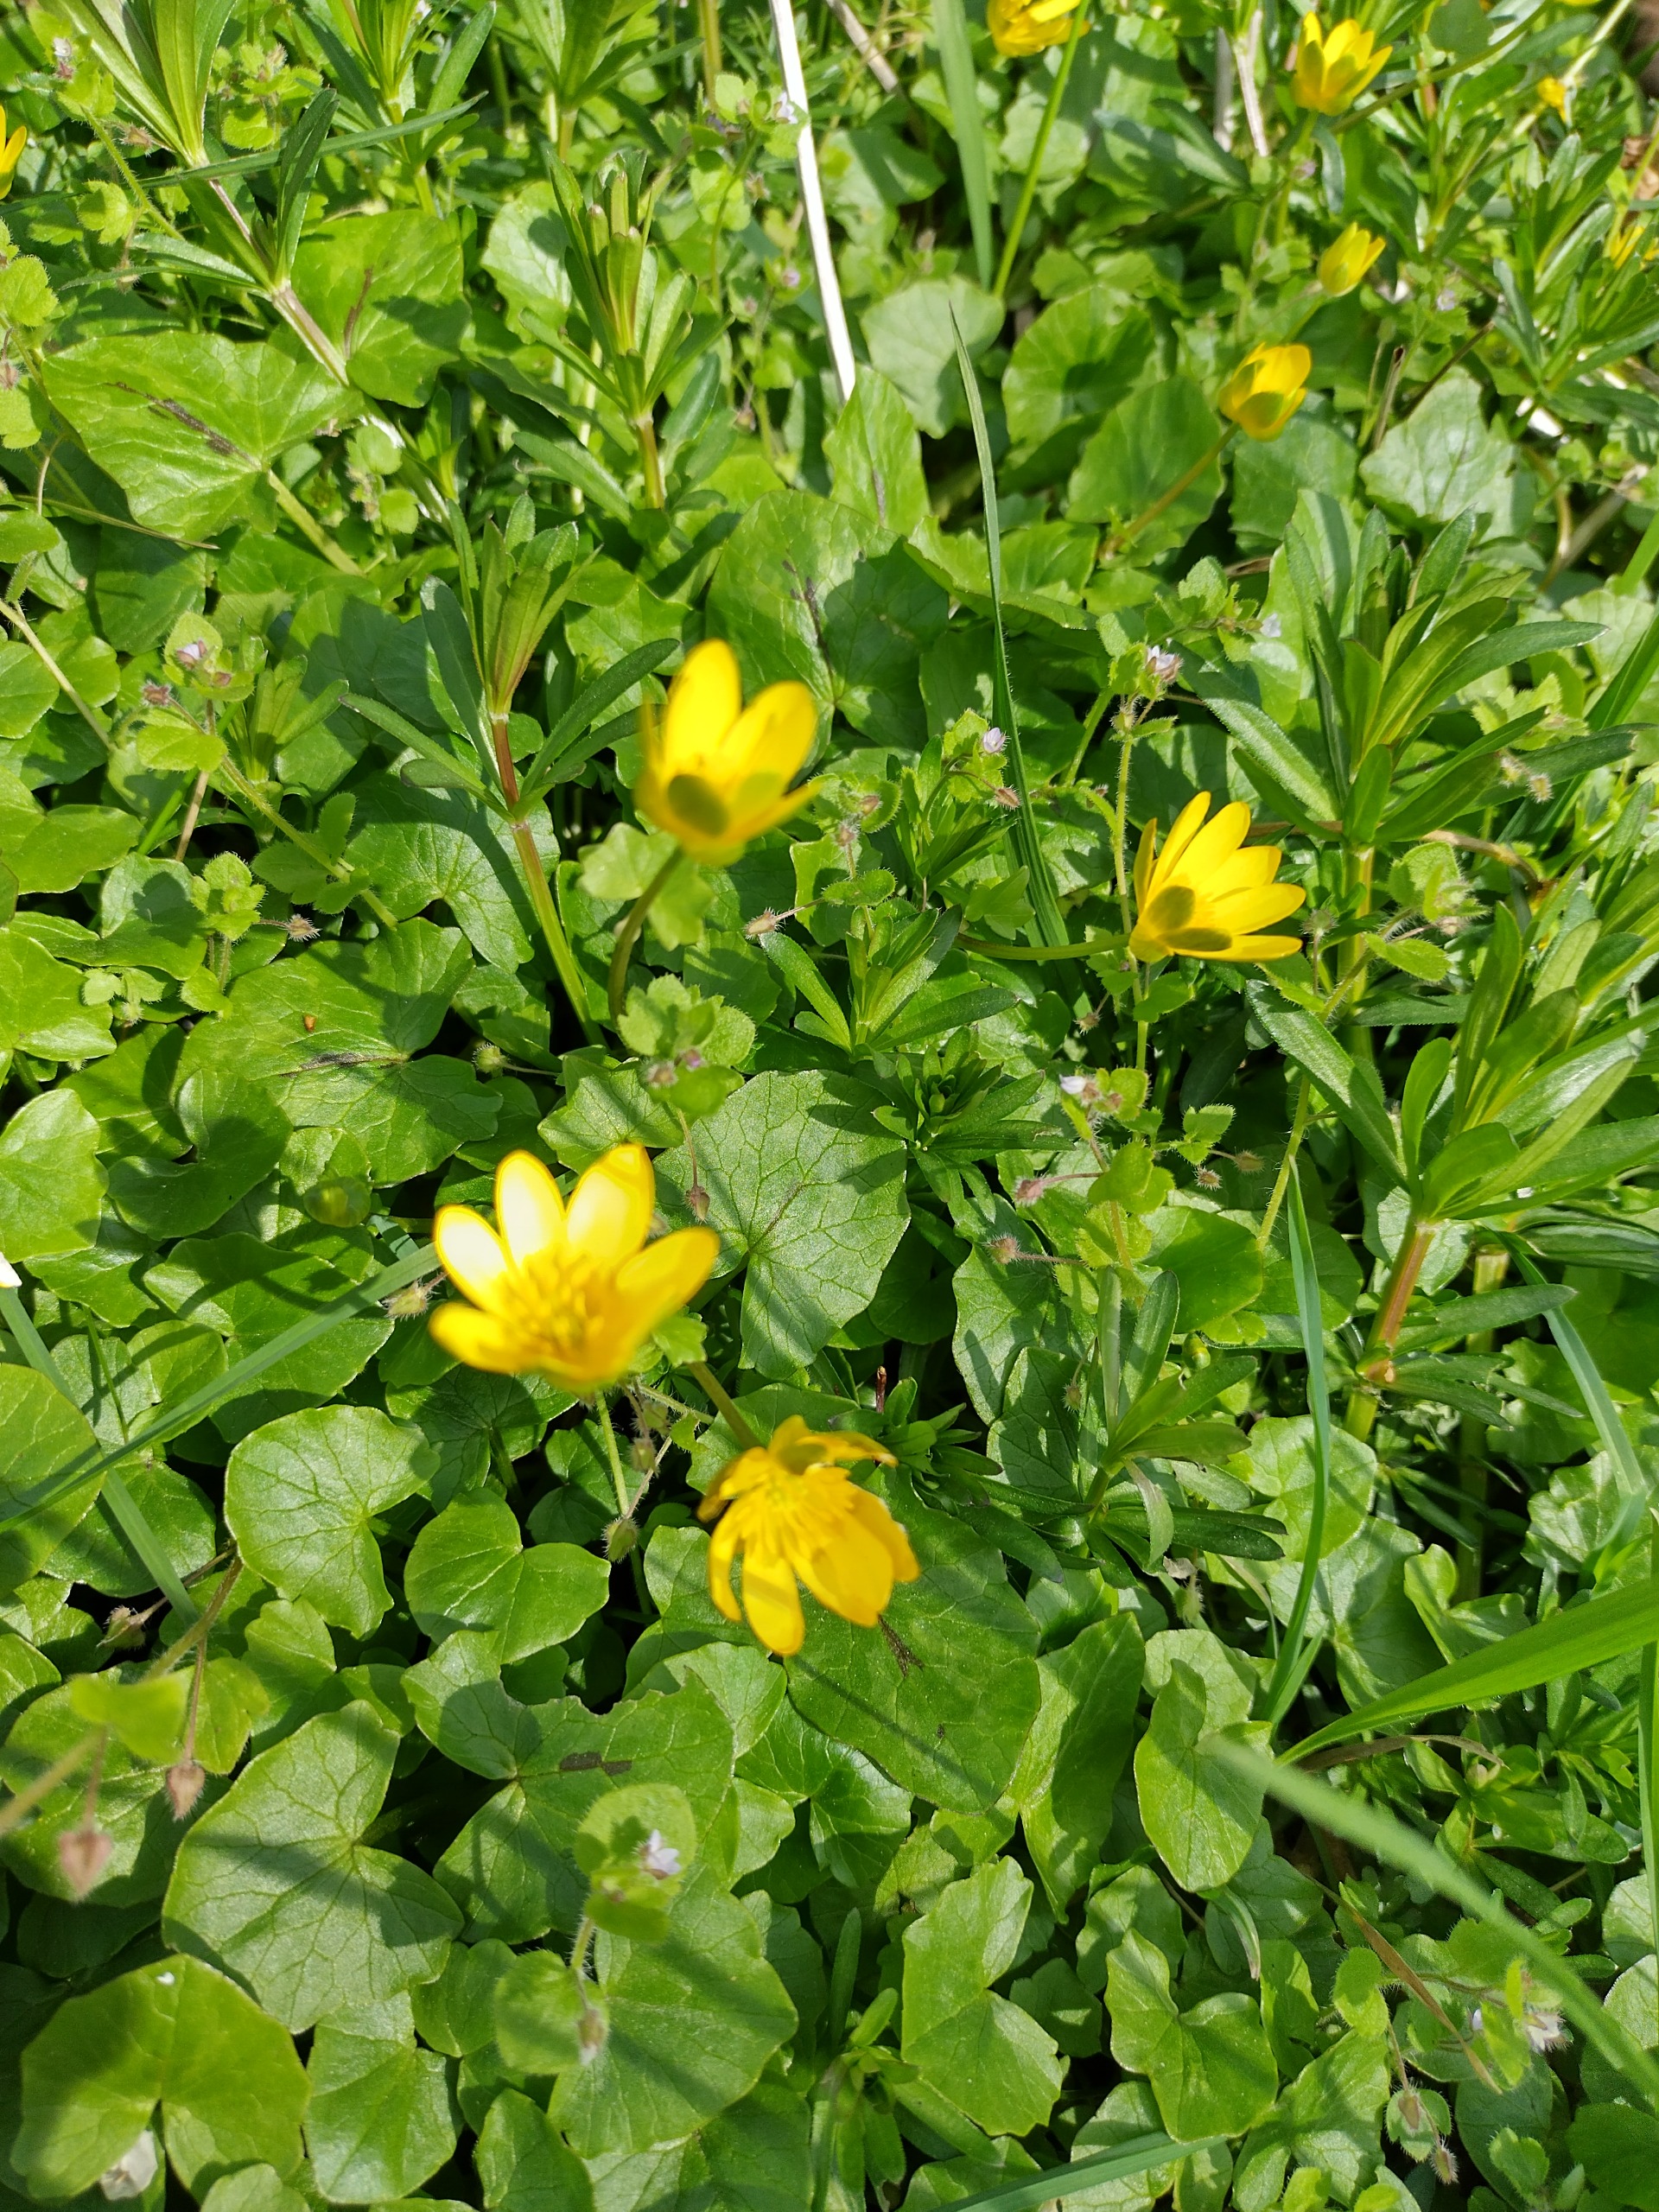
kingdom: Plantae
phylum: Tracheophyta
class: Magnoliopsida
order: Ranunculales
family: Ranunculaceae
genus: Ficaria
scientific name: Ficaria verna
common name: Vorterod
